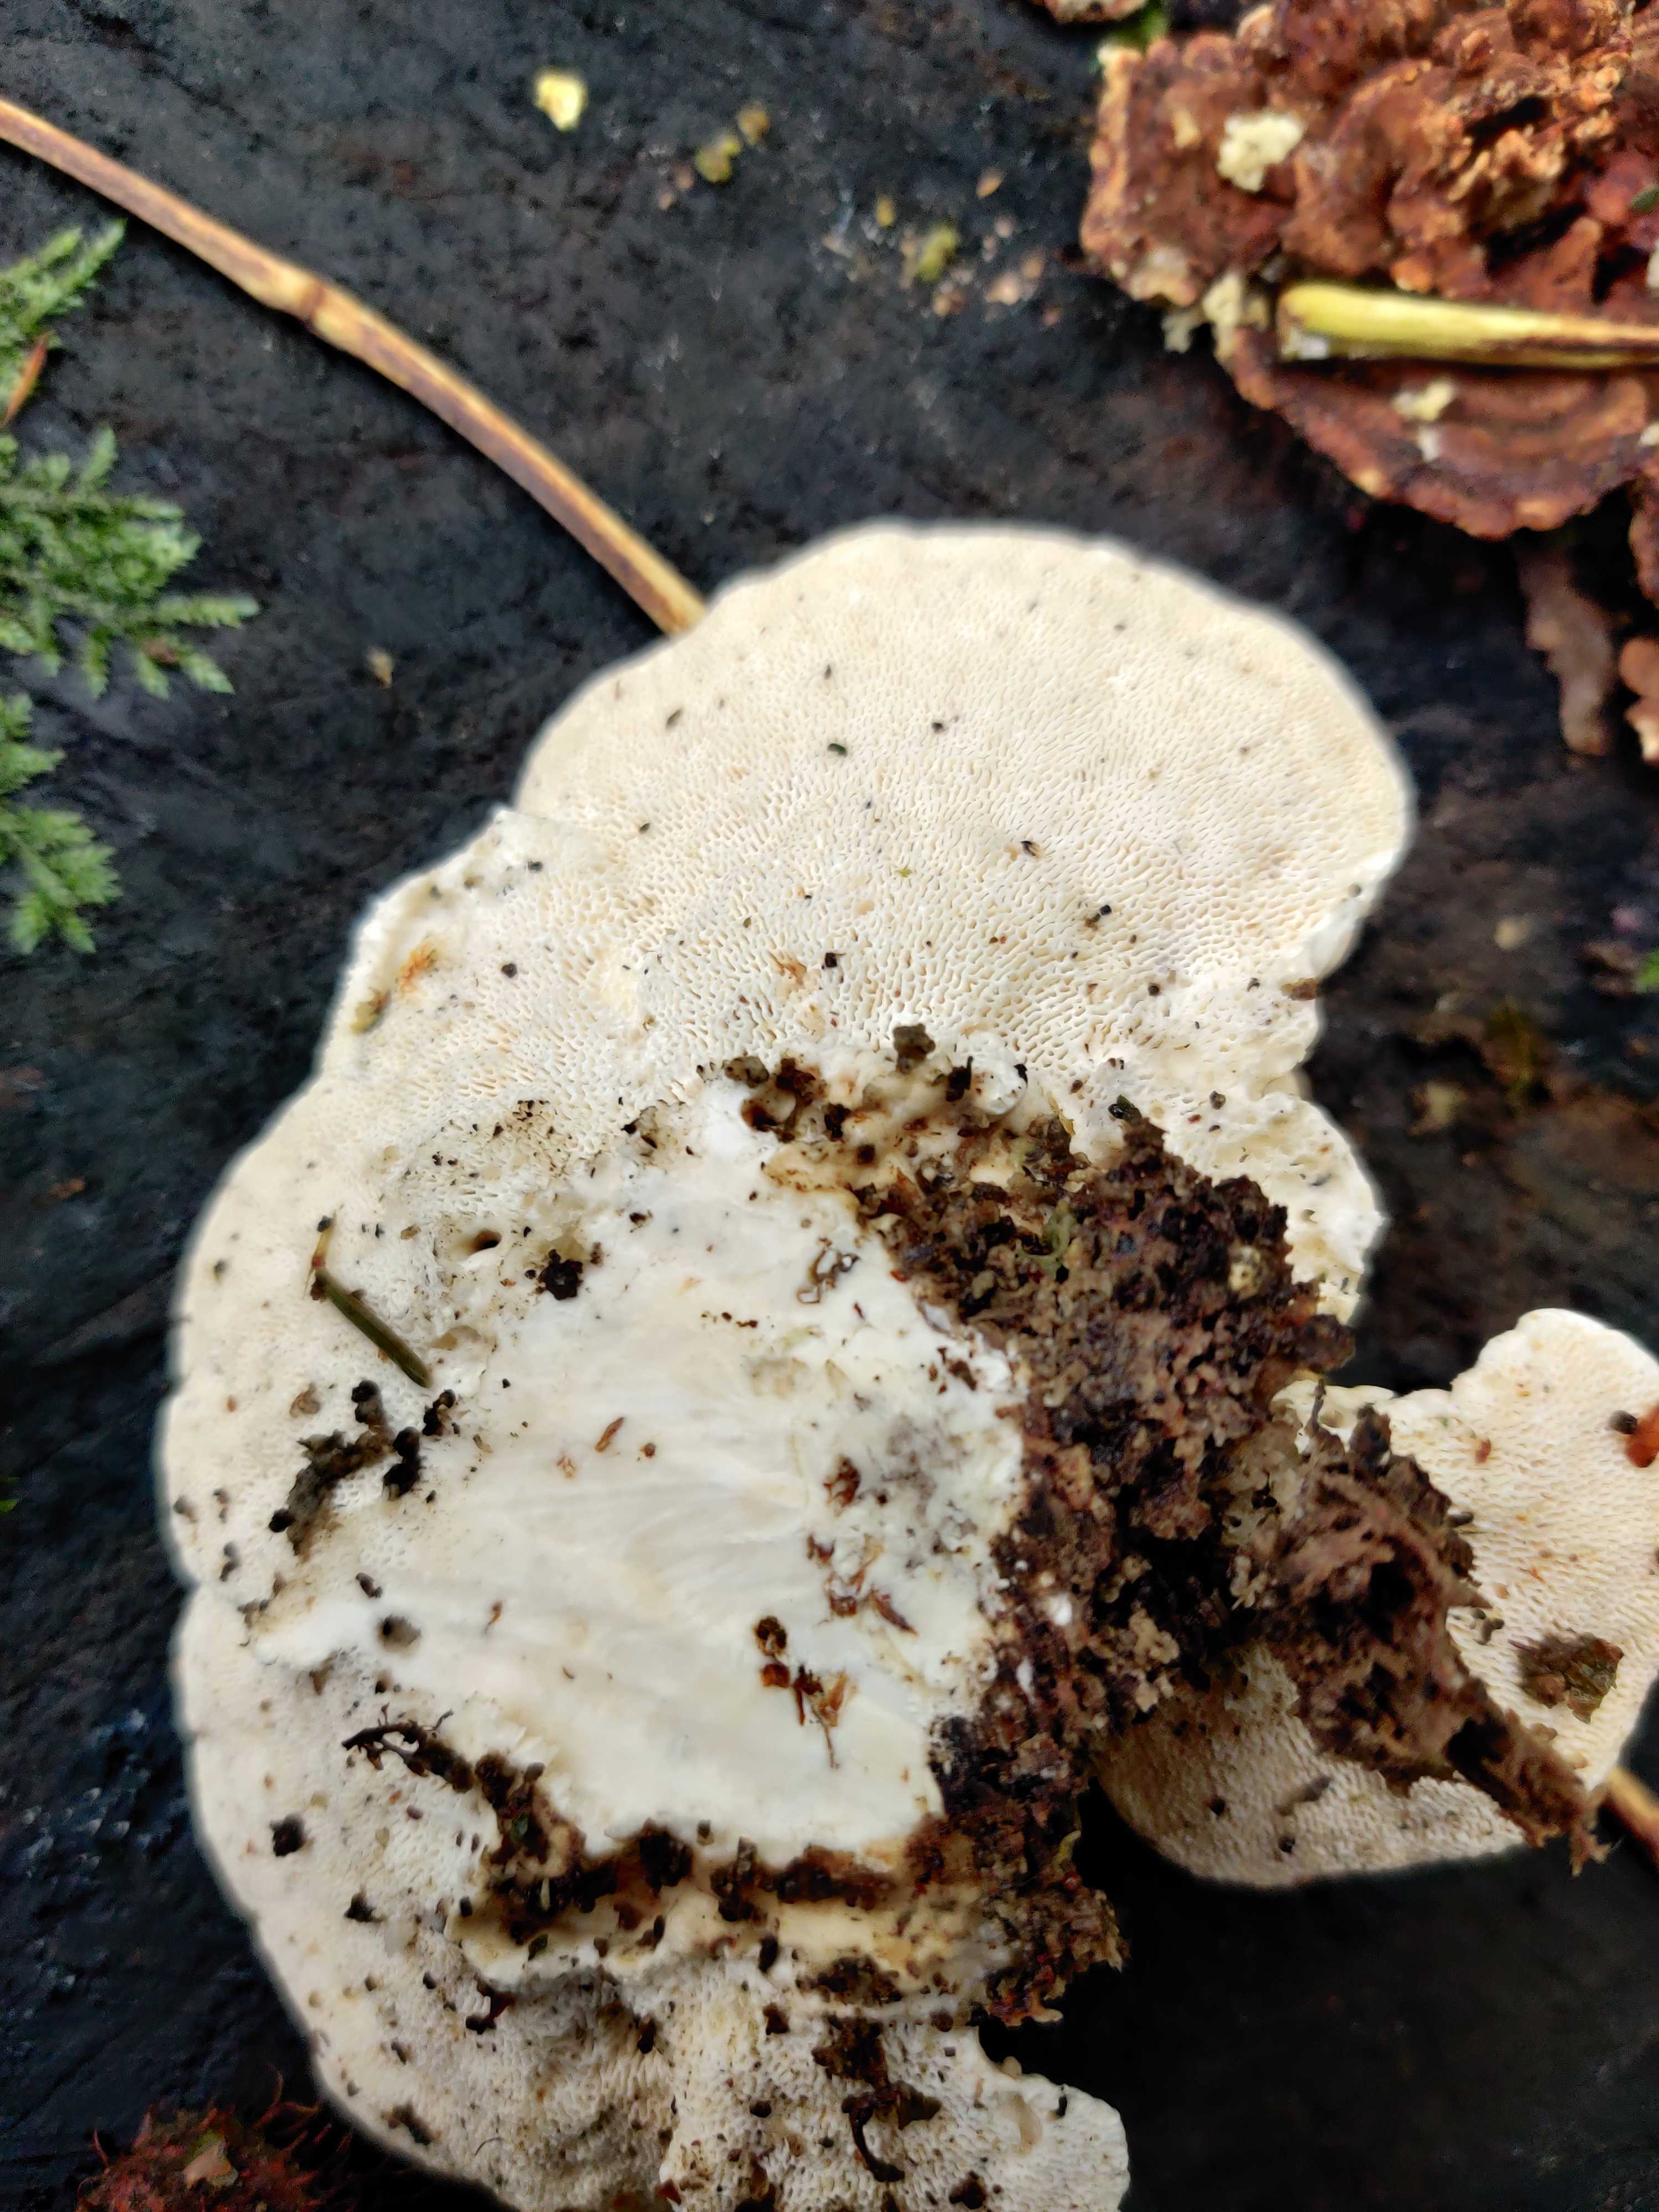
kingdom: Fungi
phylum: Basidiomycota
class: Agaricomycetes
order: Polyporales
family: Polyporaceae
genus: Trametes
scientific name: Trametes gibbosa
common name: puklet læderporesvamp
